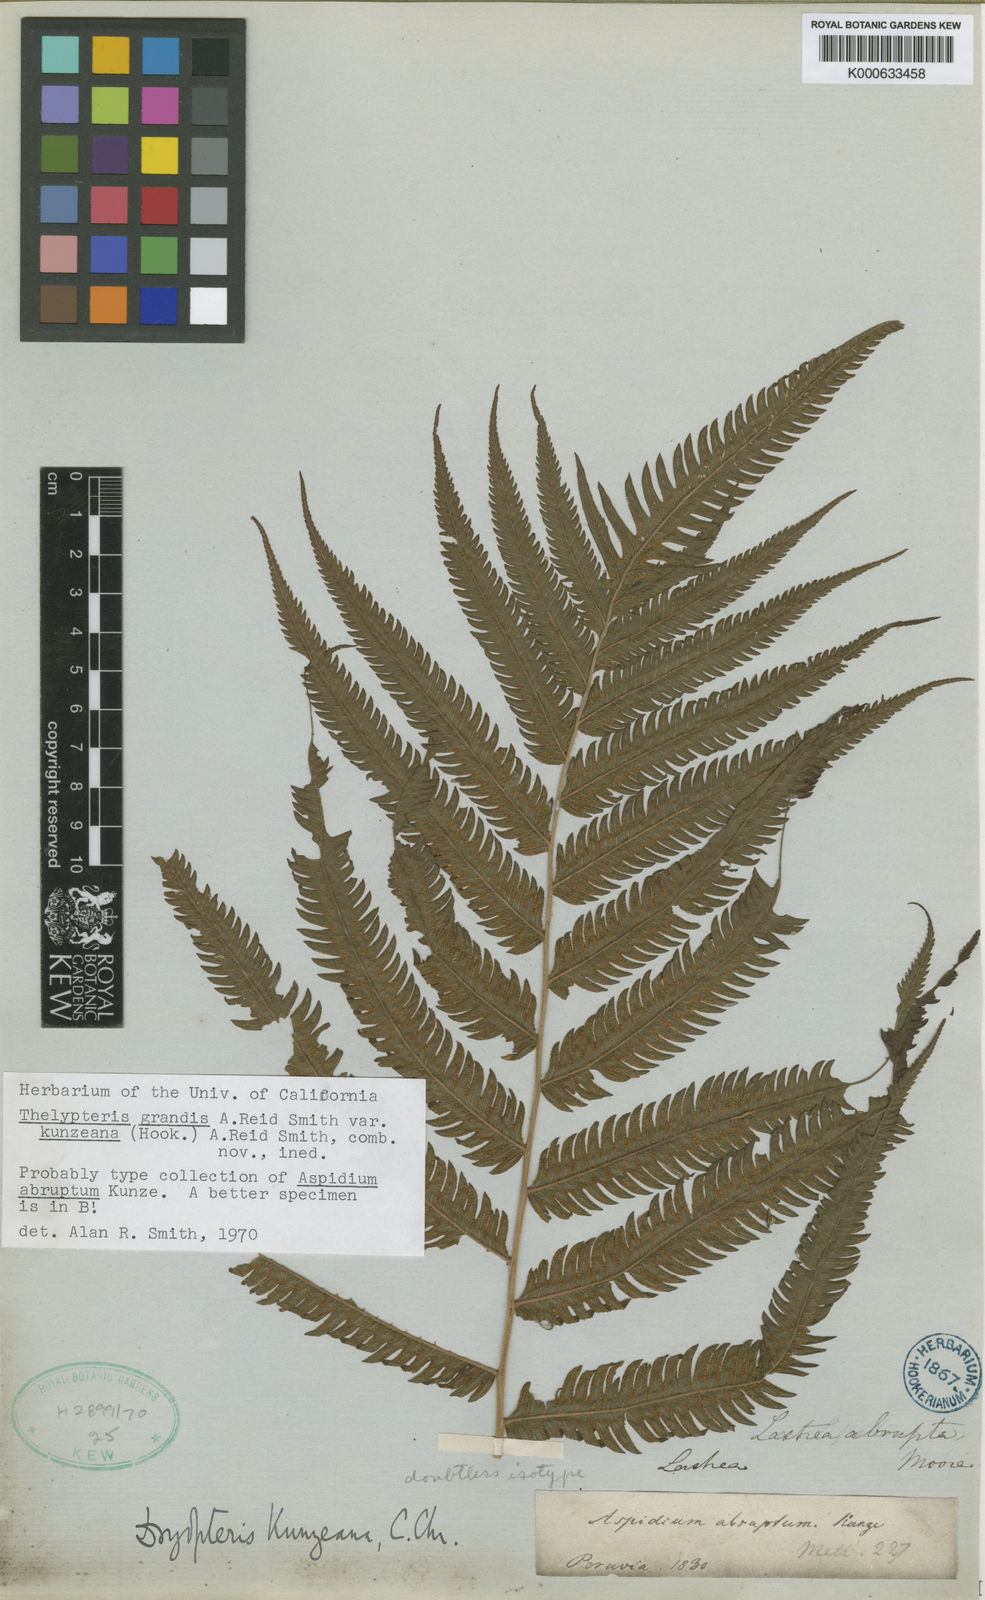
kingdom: Plantae
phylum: Tracheophyta
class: Polypodiopsida
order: Polypodiales
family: Thelypteridaceae
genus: Christella
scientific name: Christella
